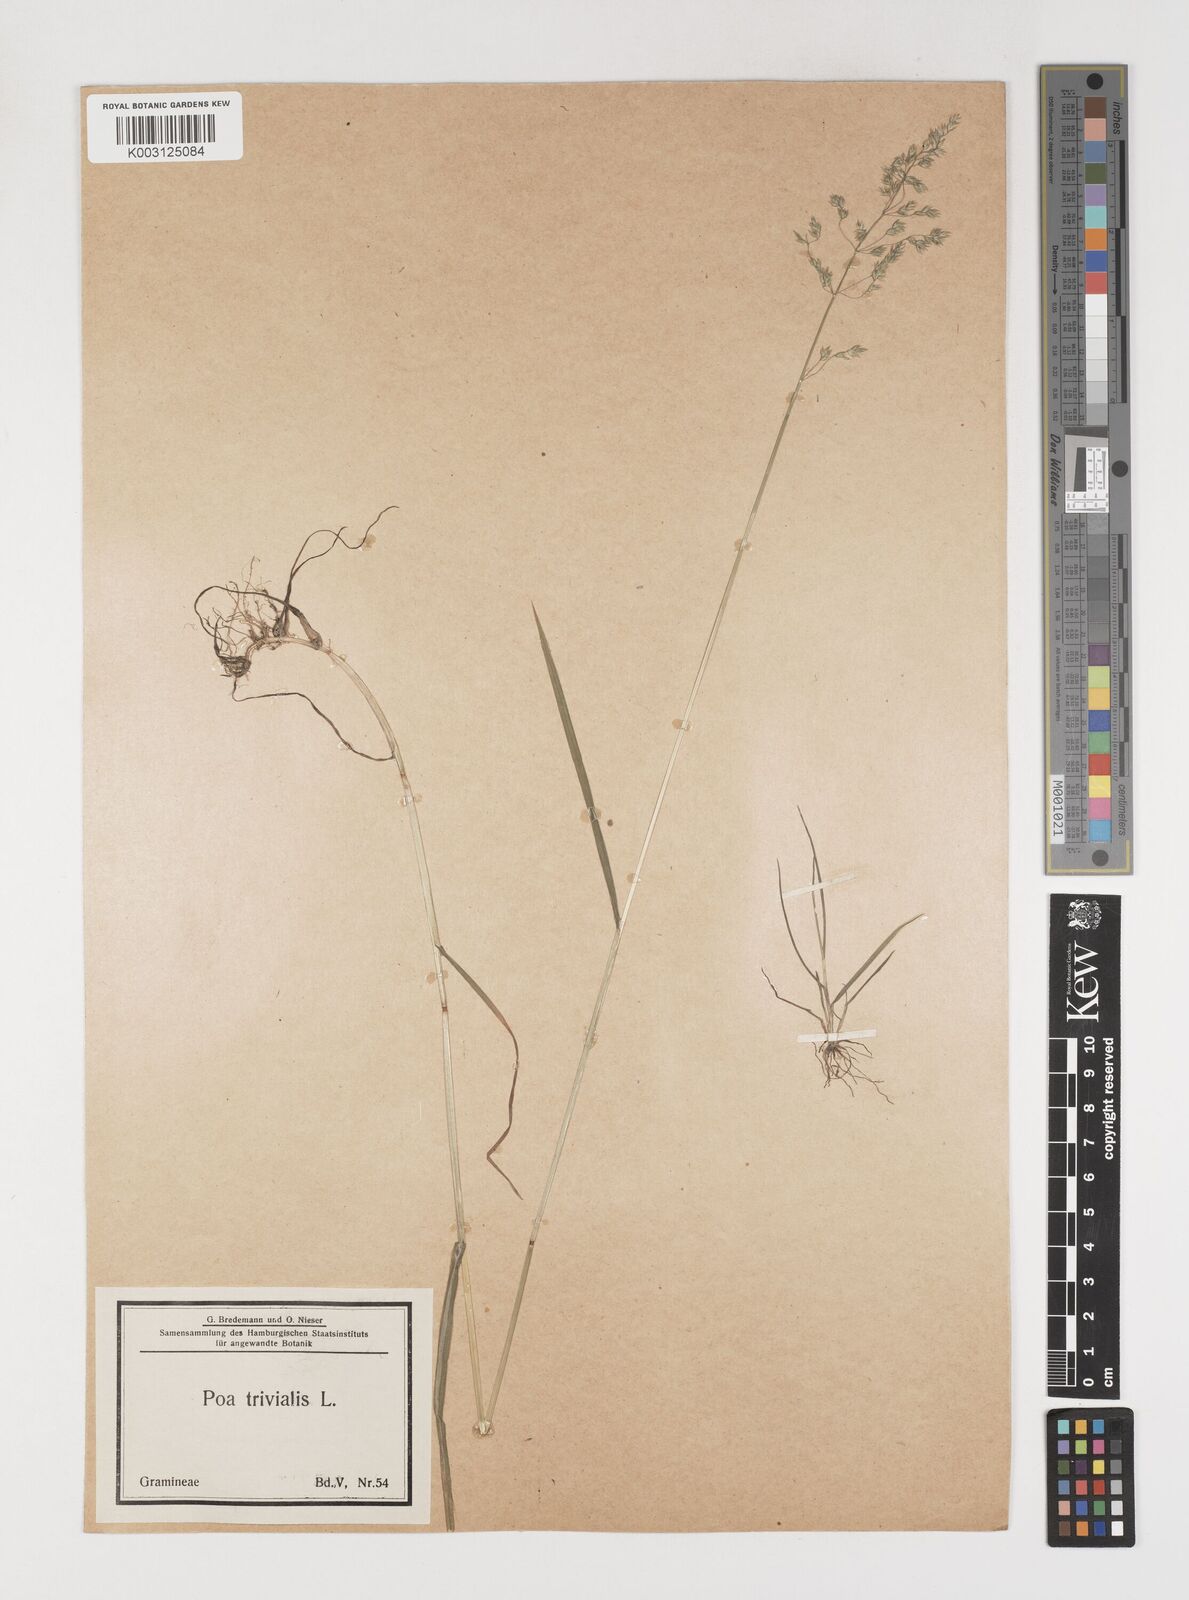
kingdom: Plantae
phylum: Tracheophyta
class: Liliopsida
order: Poales
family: Poaceae
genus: Poa
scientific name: Poa trivialis
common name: Rough bluegrass
